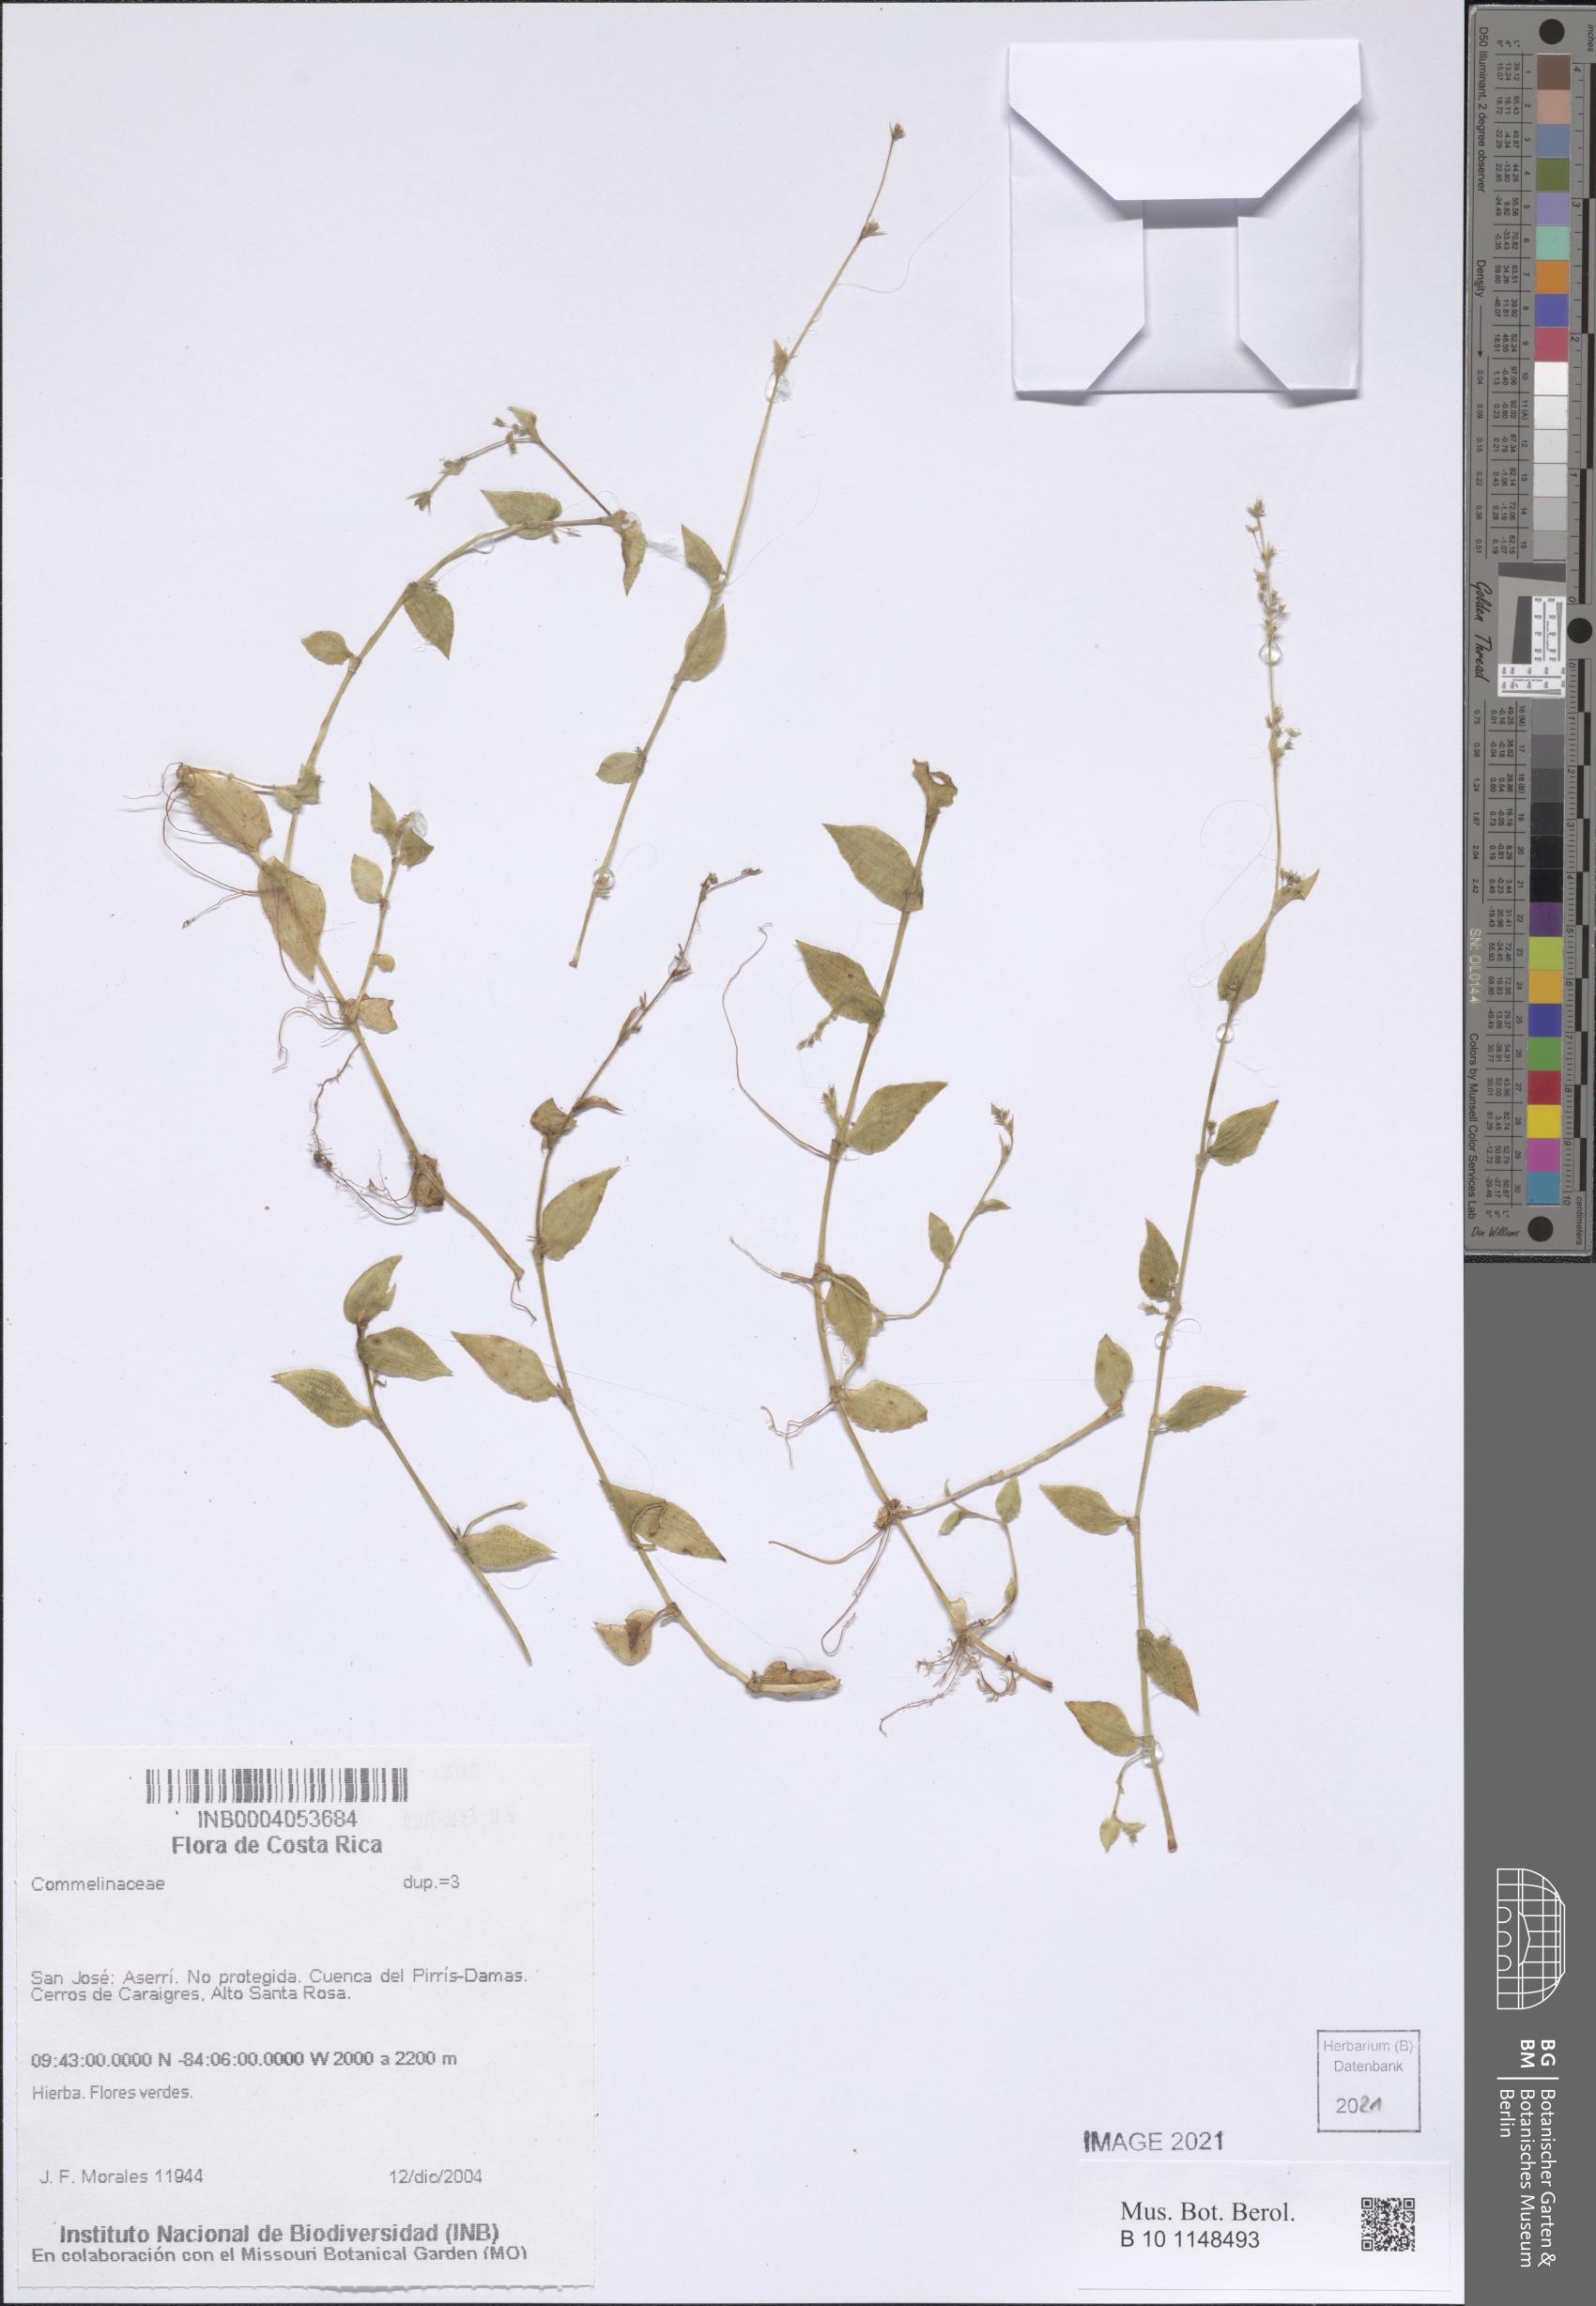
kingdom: Plantae
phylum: Tracheophyta
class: Liliopsida
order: Commelinales
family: Commelinaceae
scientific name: Commelinaceae
